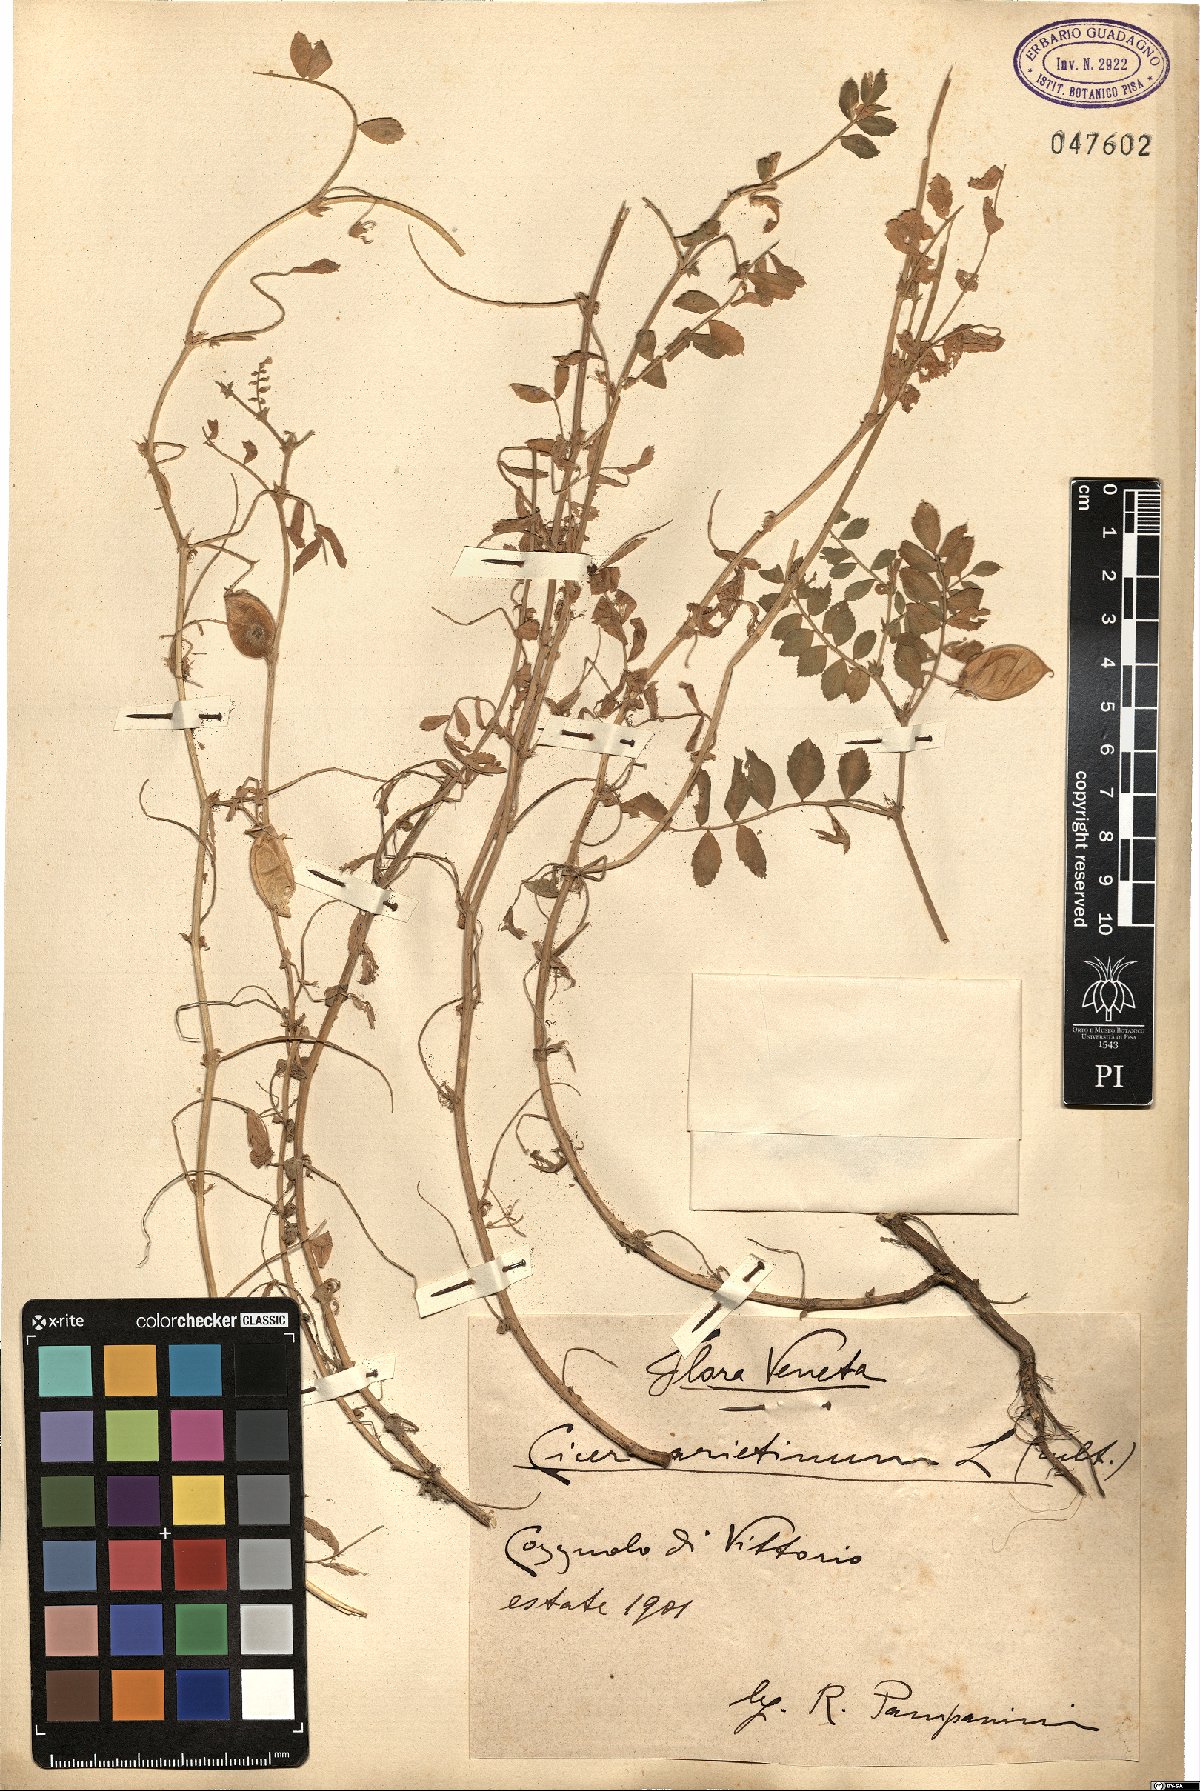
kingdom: Plantae
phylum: Tracheophyta
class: Magnoliopsida
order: Fabales
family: Fabaceae
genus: Cicer
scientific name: Cicer arietinum
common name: Chick pea
